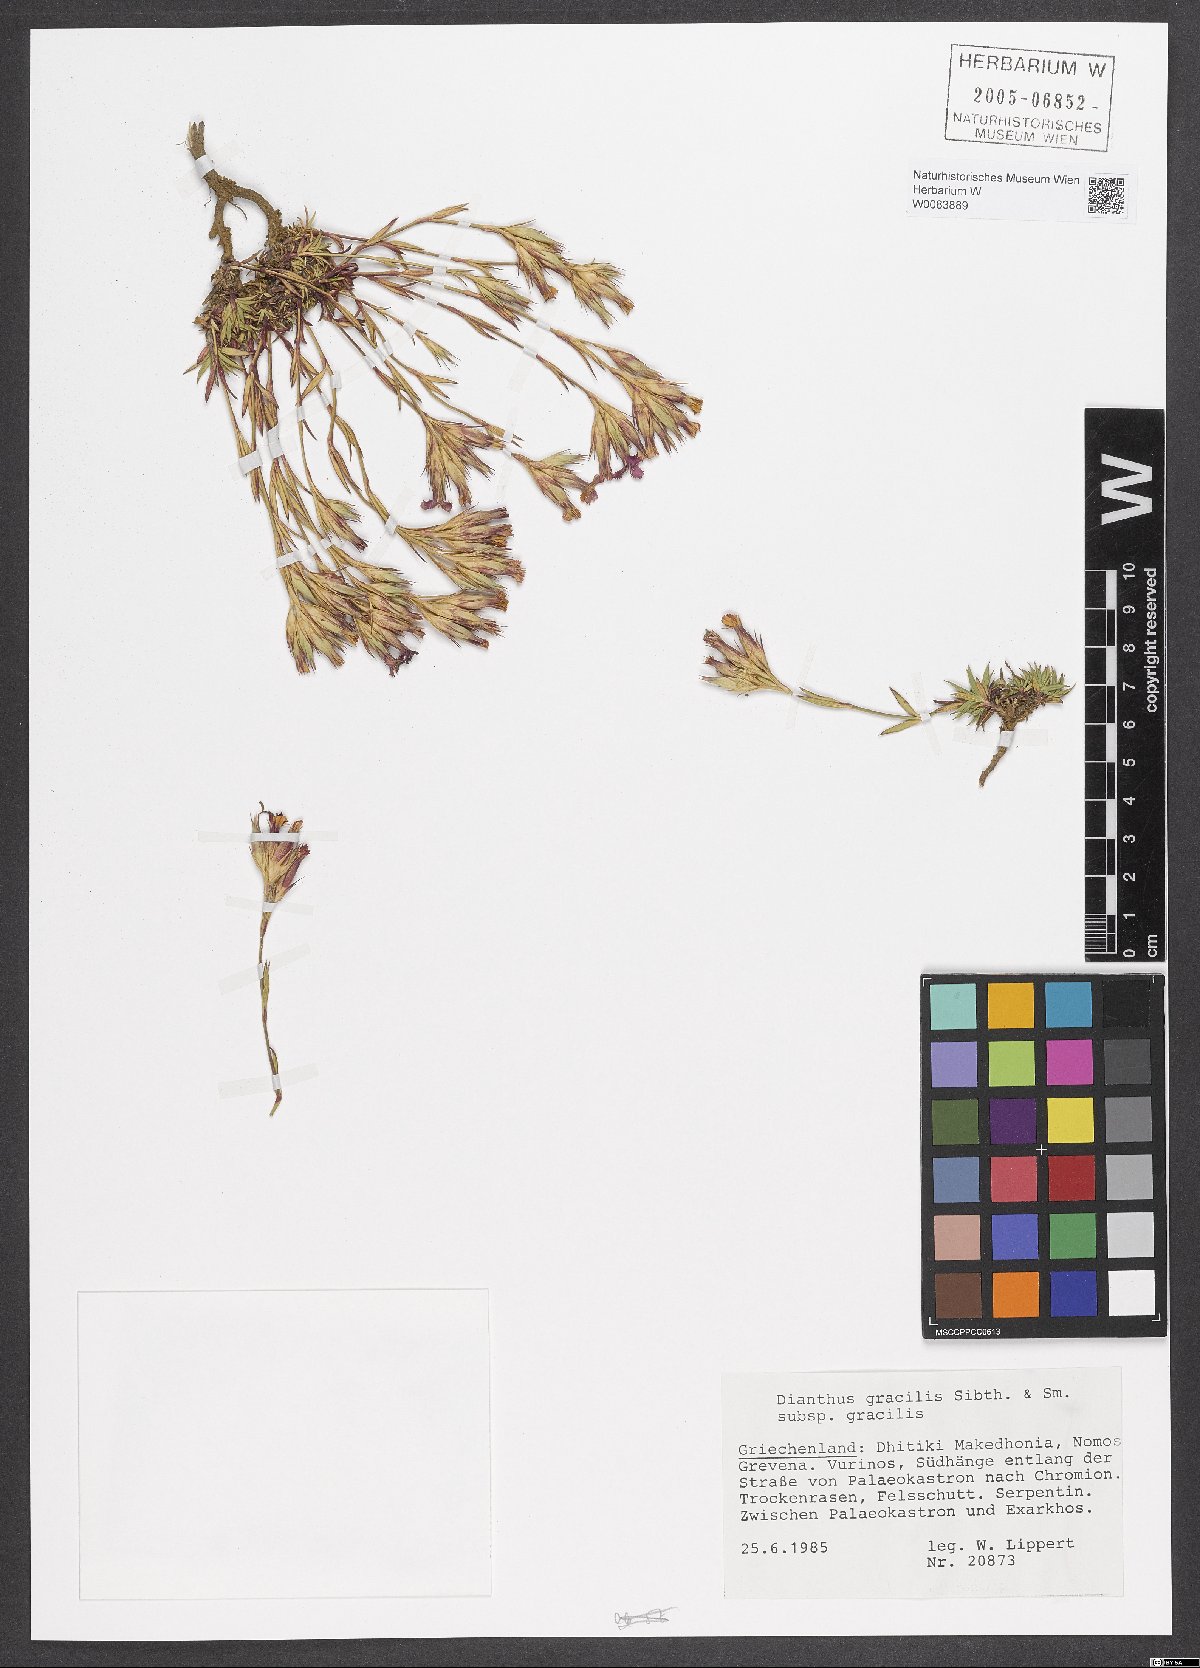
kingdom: Plantae
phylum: Tracheophyta
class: Magnoliopsida
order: Caryophyllales
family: Caryophyllaceae
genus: Dianthus
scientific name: Dianthus gracilis
